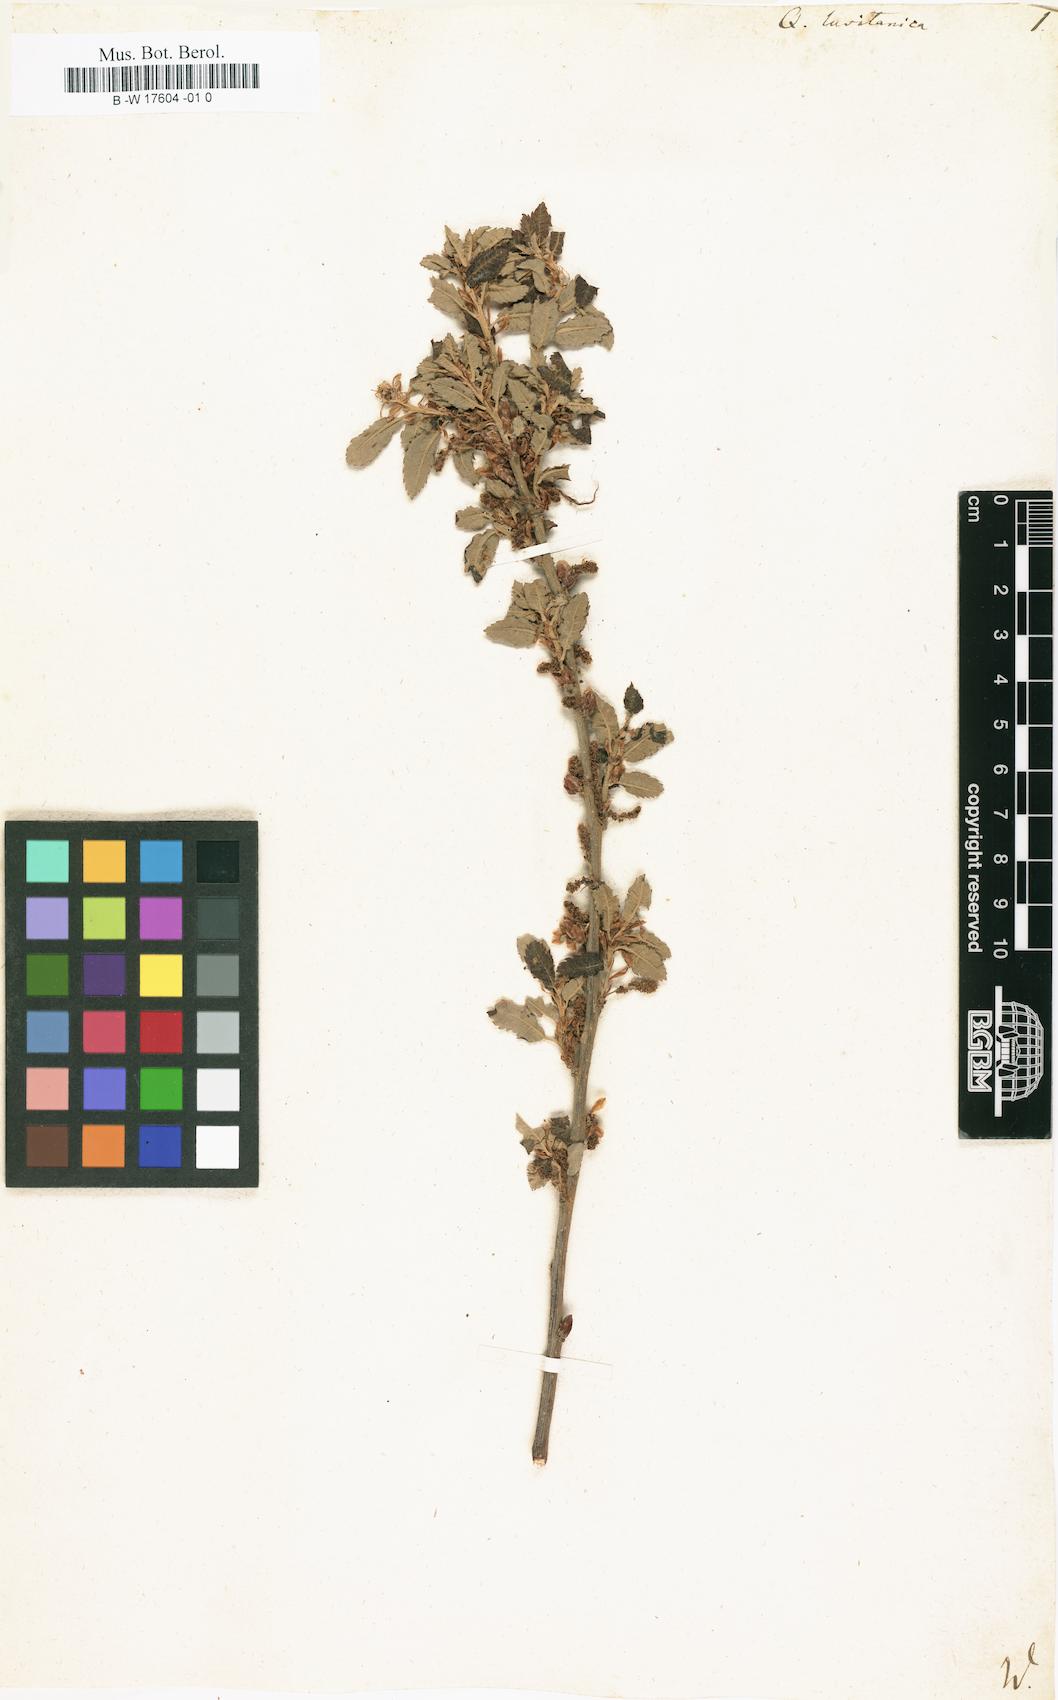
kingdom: Plantae
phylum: Tracheophyta
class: Magnoliopsida
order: Fagales
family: Fagaceae
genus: Quercus
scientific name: Quercus lusitanica
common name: Scrub gall oak
